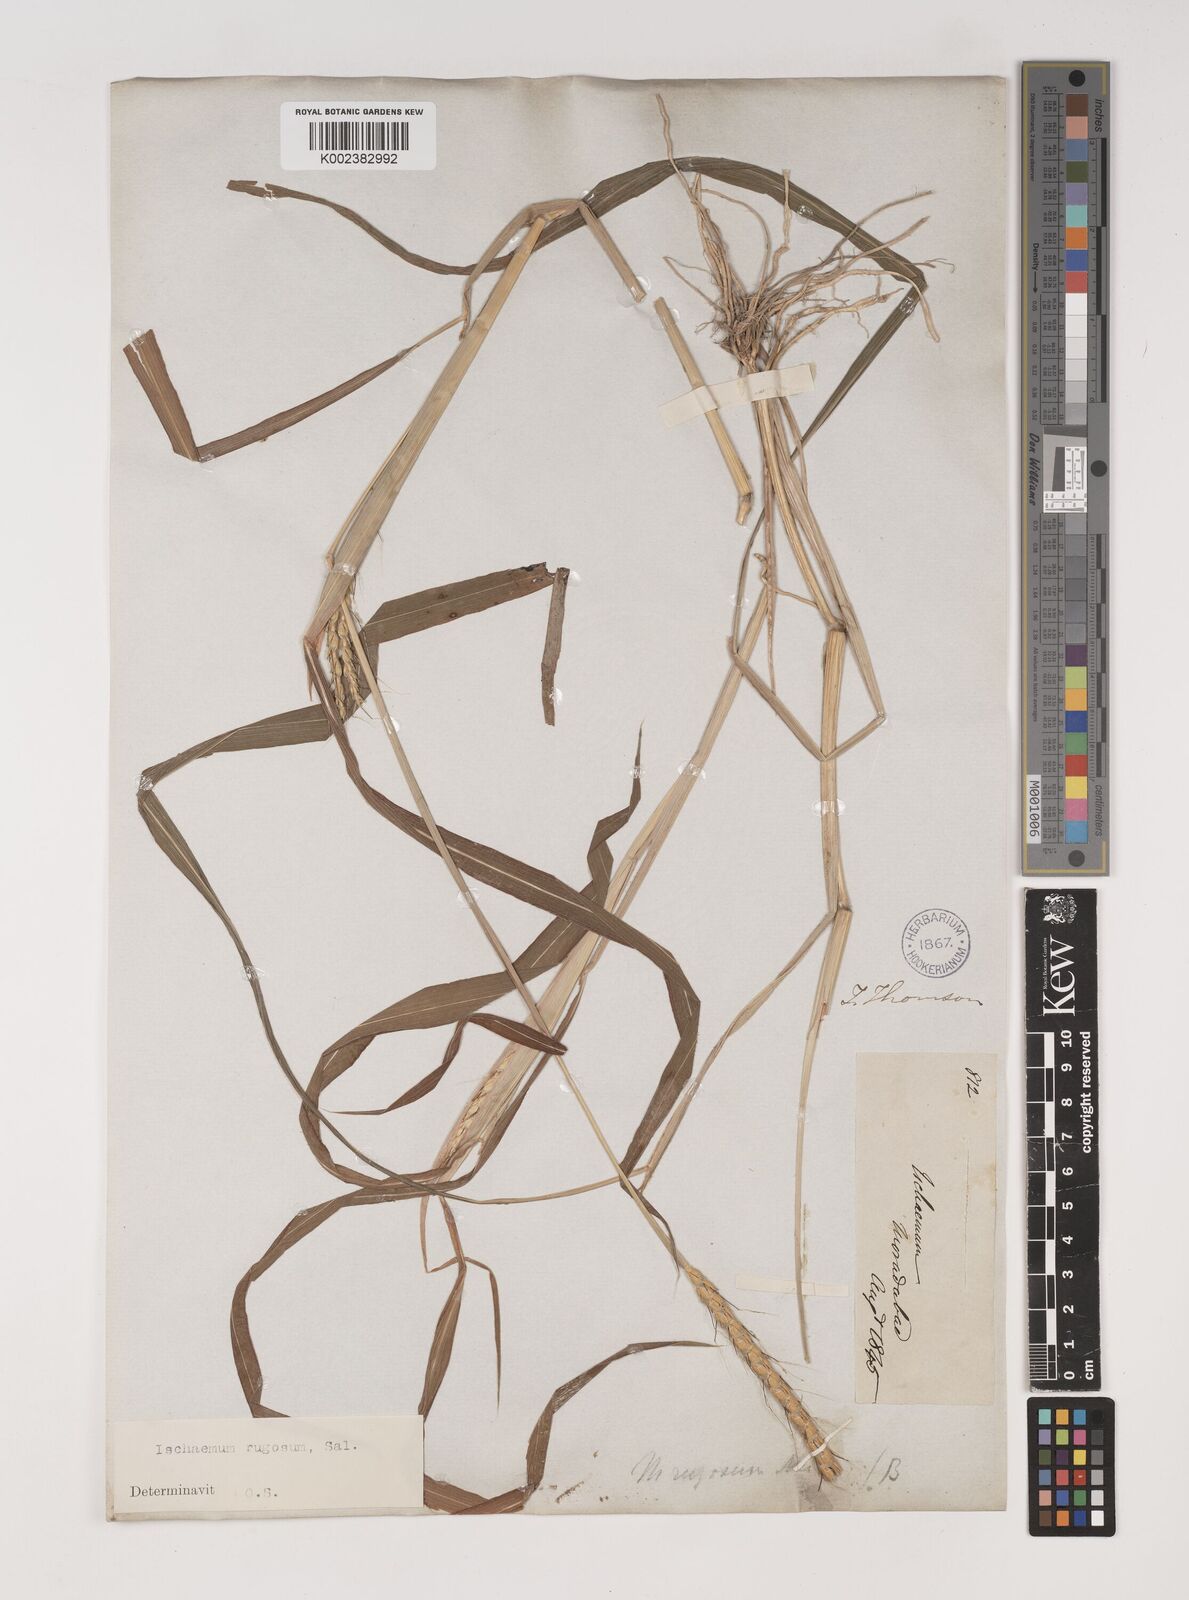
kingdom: Plantae
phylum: Tracheophyta
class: Liliopsida
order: Poales
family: Poaceae
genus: Ischaemum
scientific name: Ischaemum rugosum
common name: Saramatta grass
